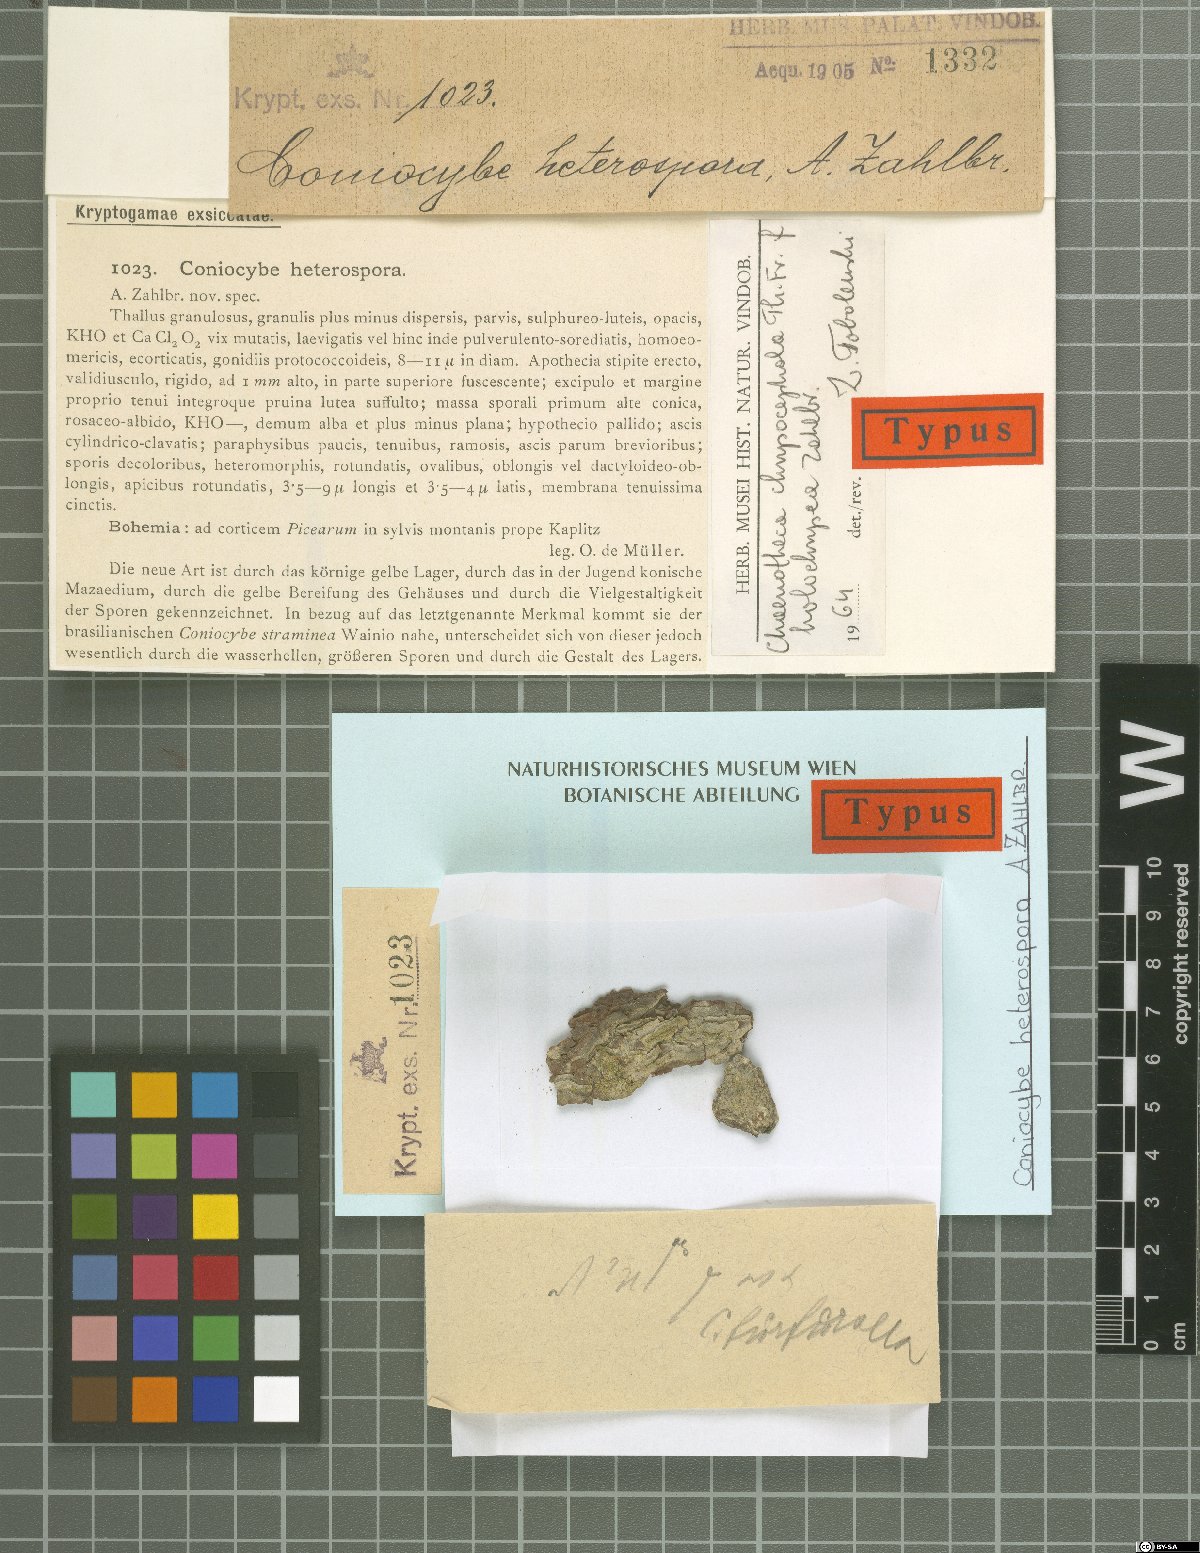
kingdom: Fungi
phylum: Ascomycota
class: Coniocybomycetes
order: Coniocybales
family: Coniocybaceae
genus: Coniocybe
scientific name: Coniocybe heterospora
